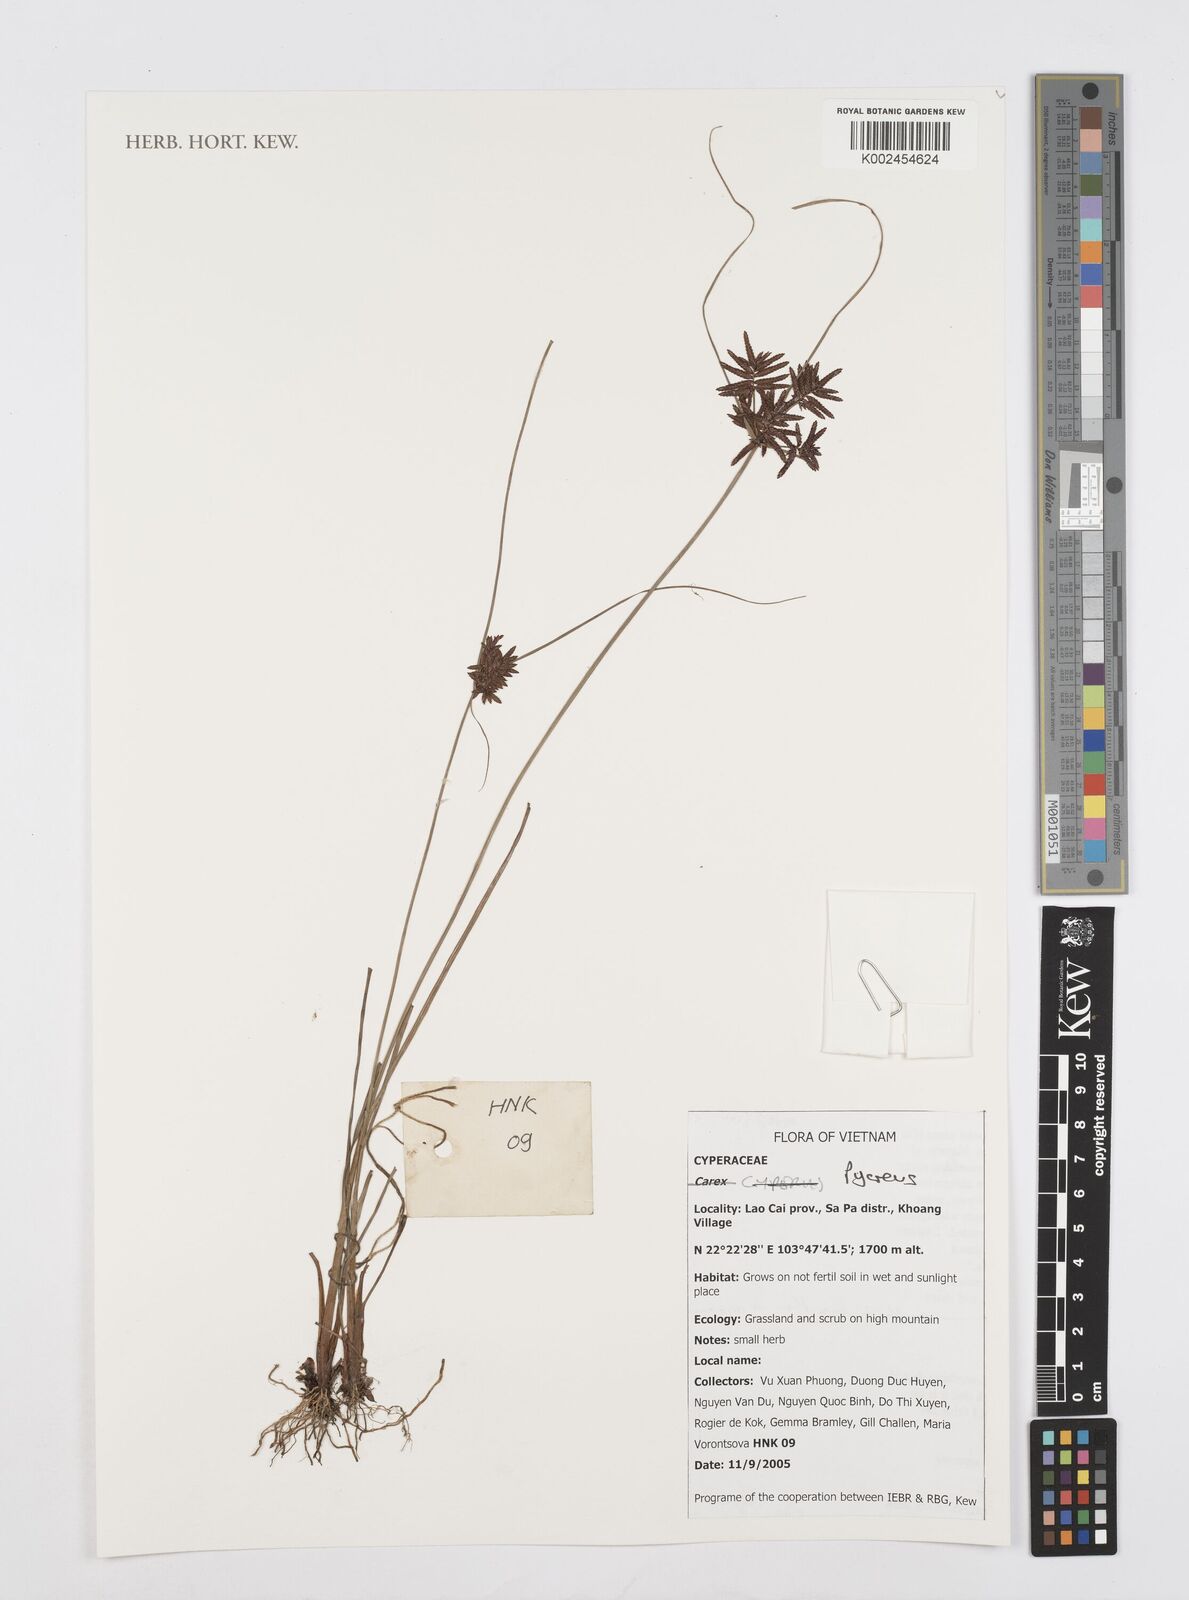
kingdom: Plantae
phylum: Tracheophyta
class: Liliopsida
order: Poales
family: Cyperaceae
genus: Cyperus
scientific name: Cyperus
